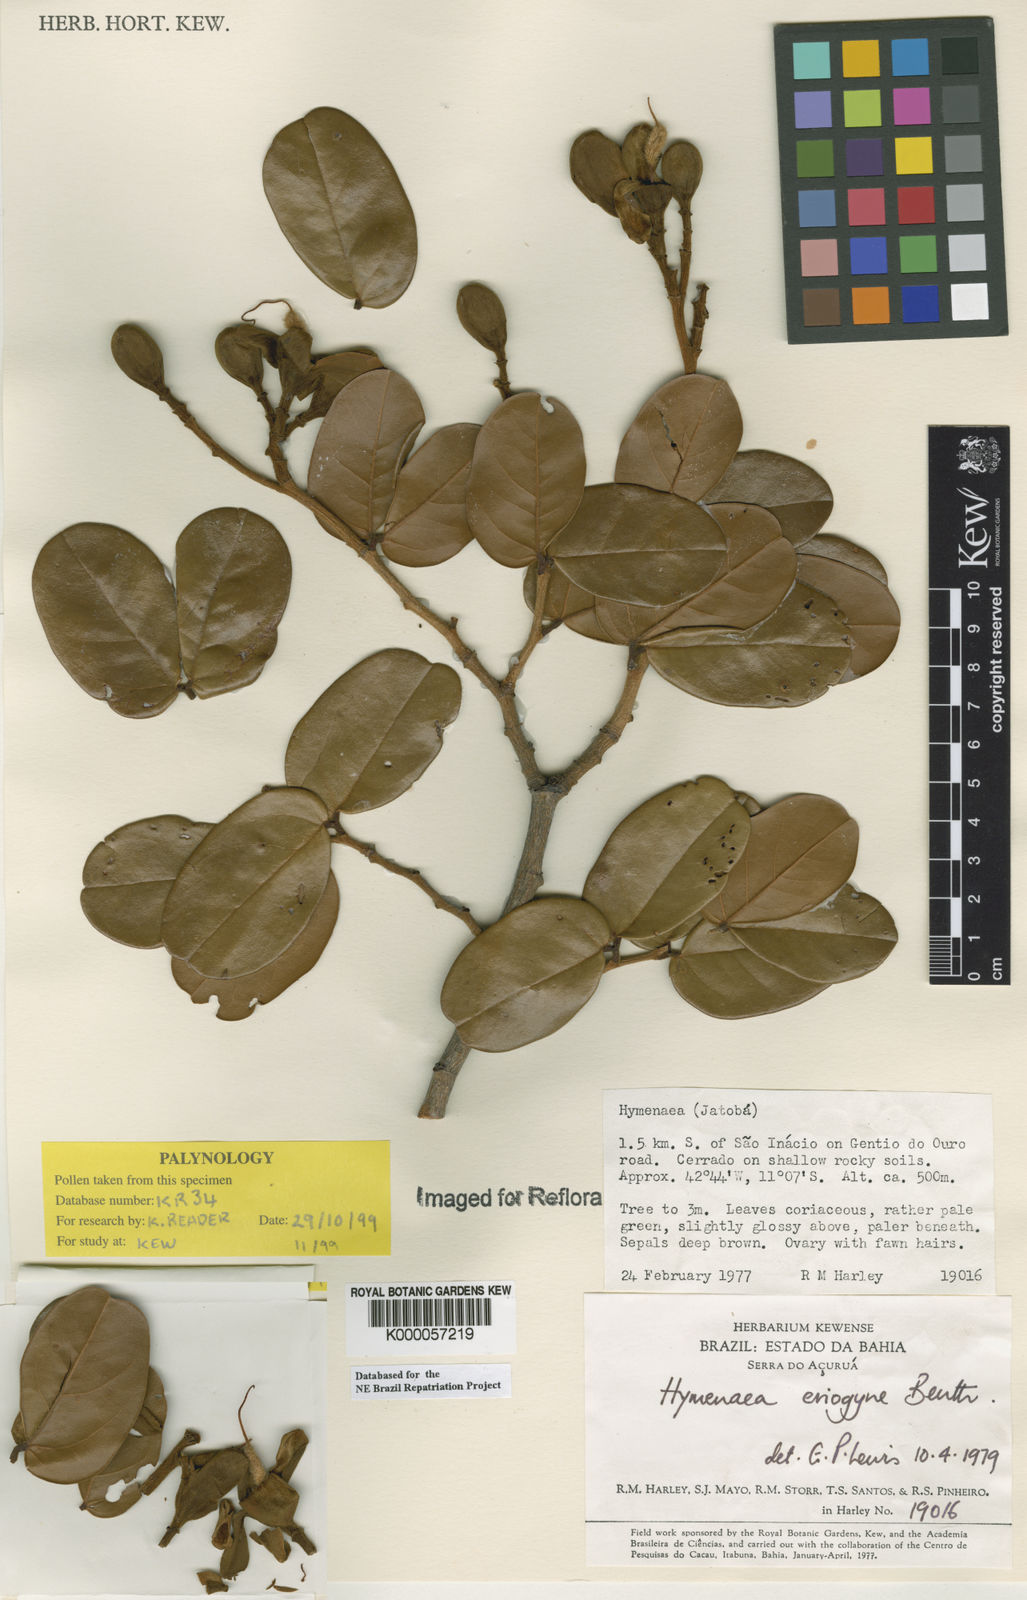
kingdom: Plantae
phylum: Tracheophyta
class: Magnoliopsida
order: Fabales
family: Fabaceae
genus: Hymenaea
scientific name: Hymenaea eriogyne
